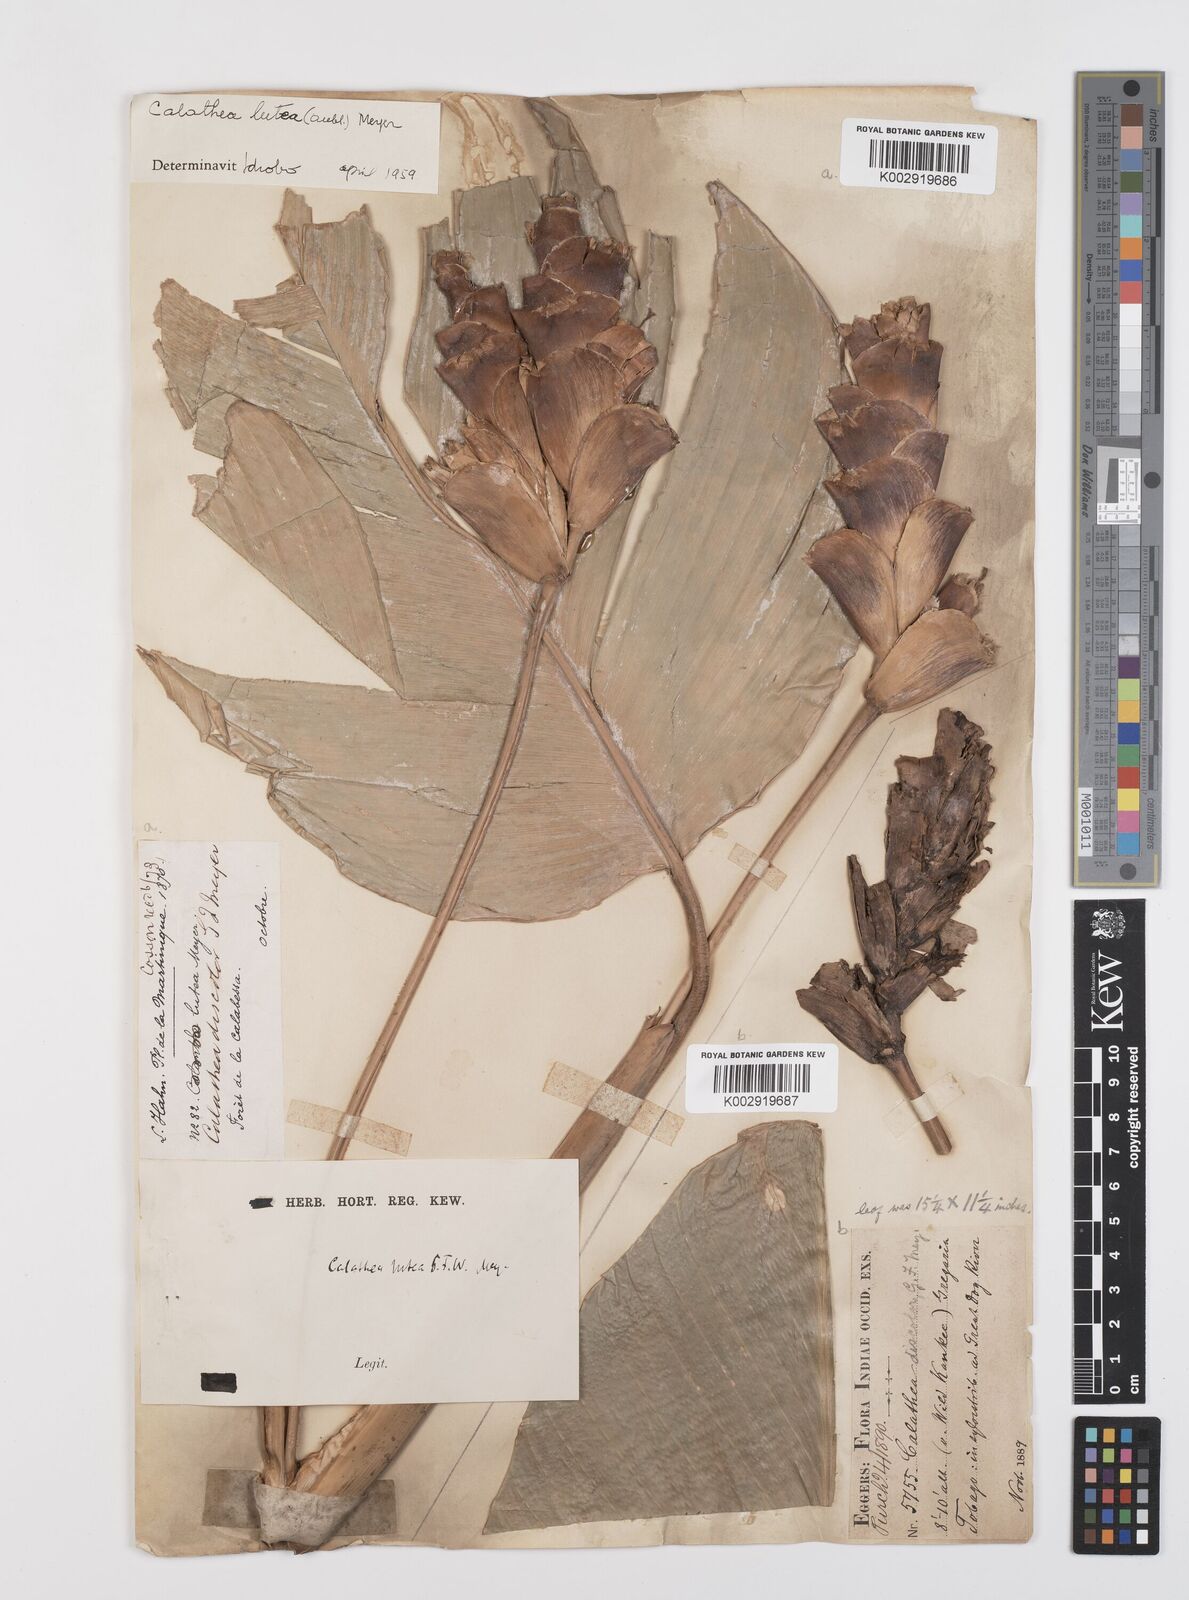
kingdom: Plantae
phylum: Tracheophyta
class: Liliopsida
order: Zingiberales
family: Marantaceae
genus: Calathea
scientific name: Calathea lutea
